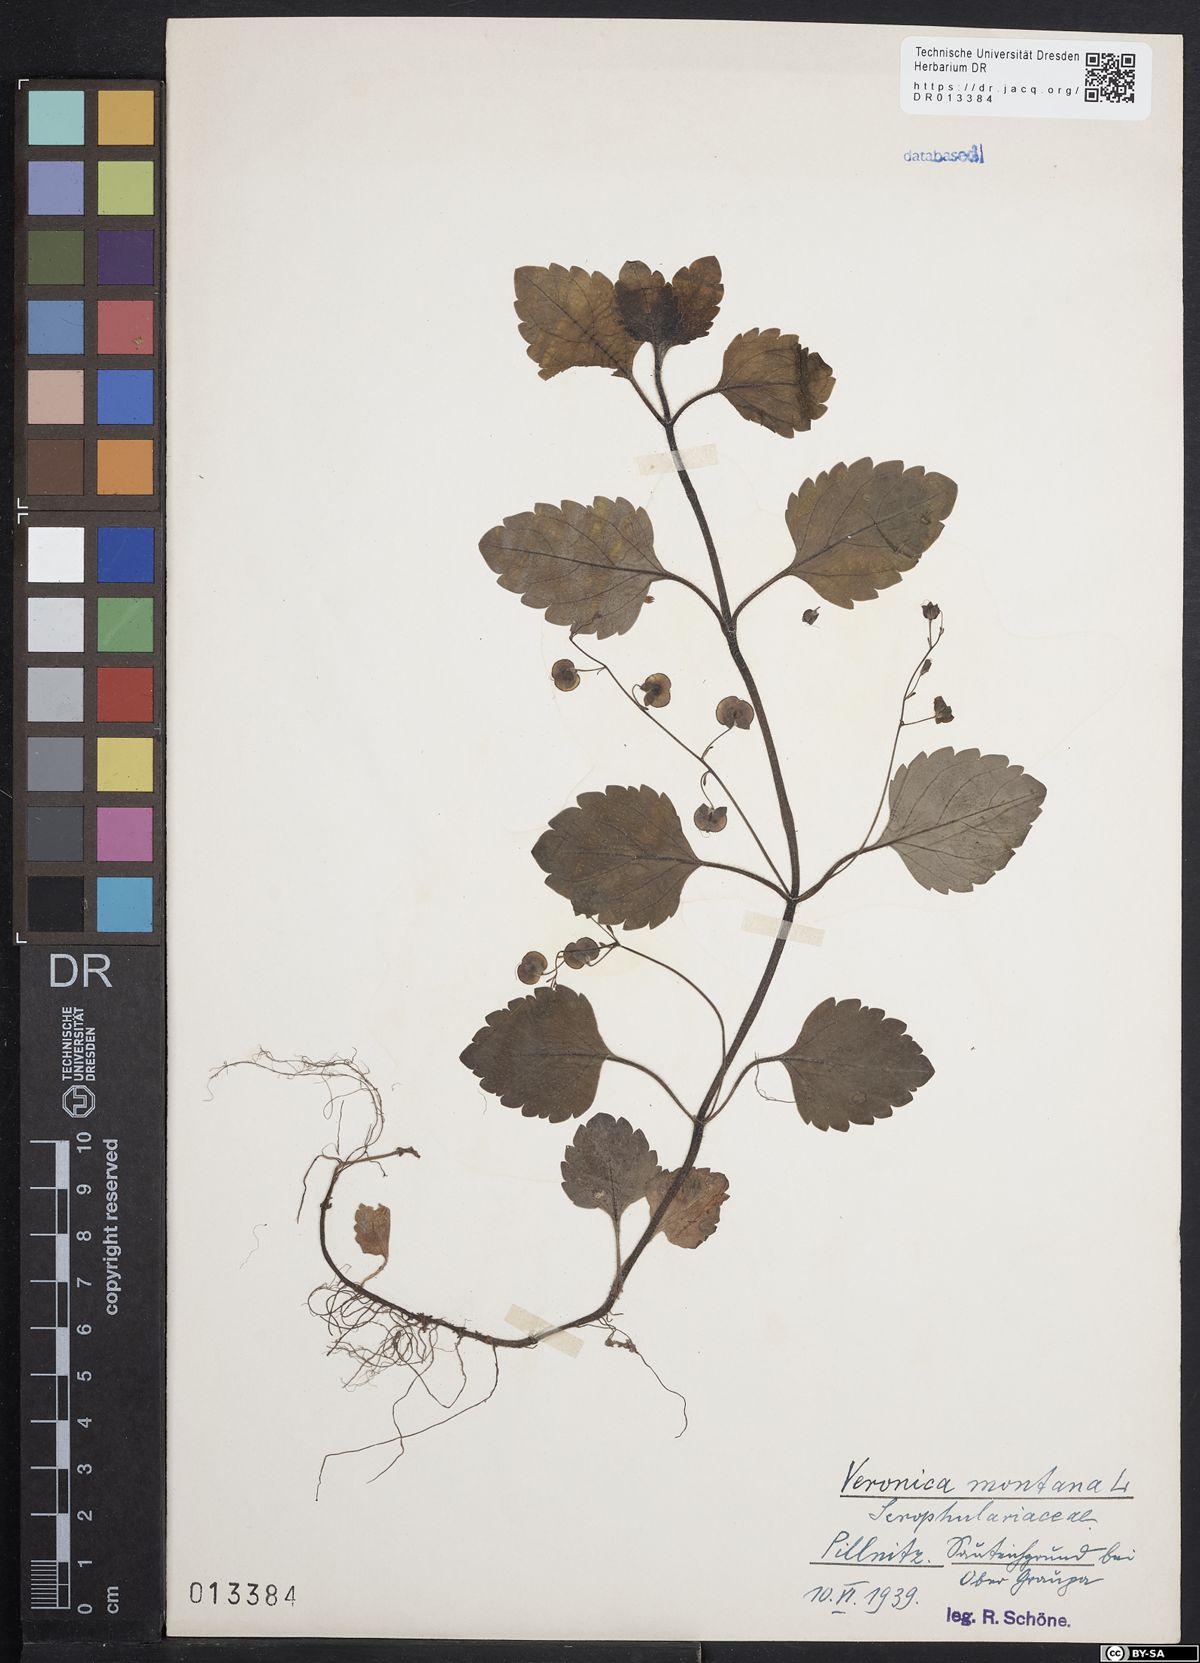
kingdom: Plantae
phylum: Tracheophyta
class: Magnoliopsida
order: Lamiales
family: Plantaginaceae
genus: Veronica
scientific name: Veronica montana
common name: Wood speedwell
